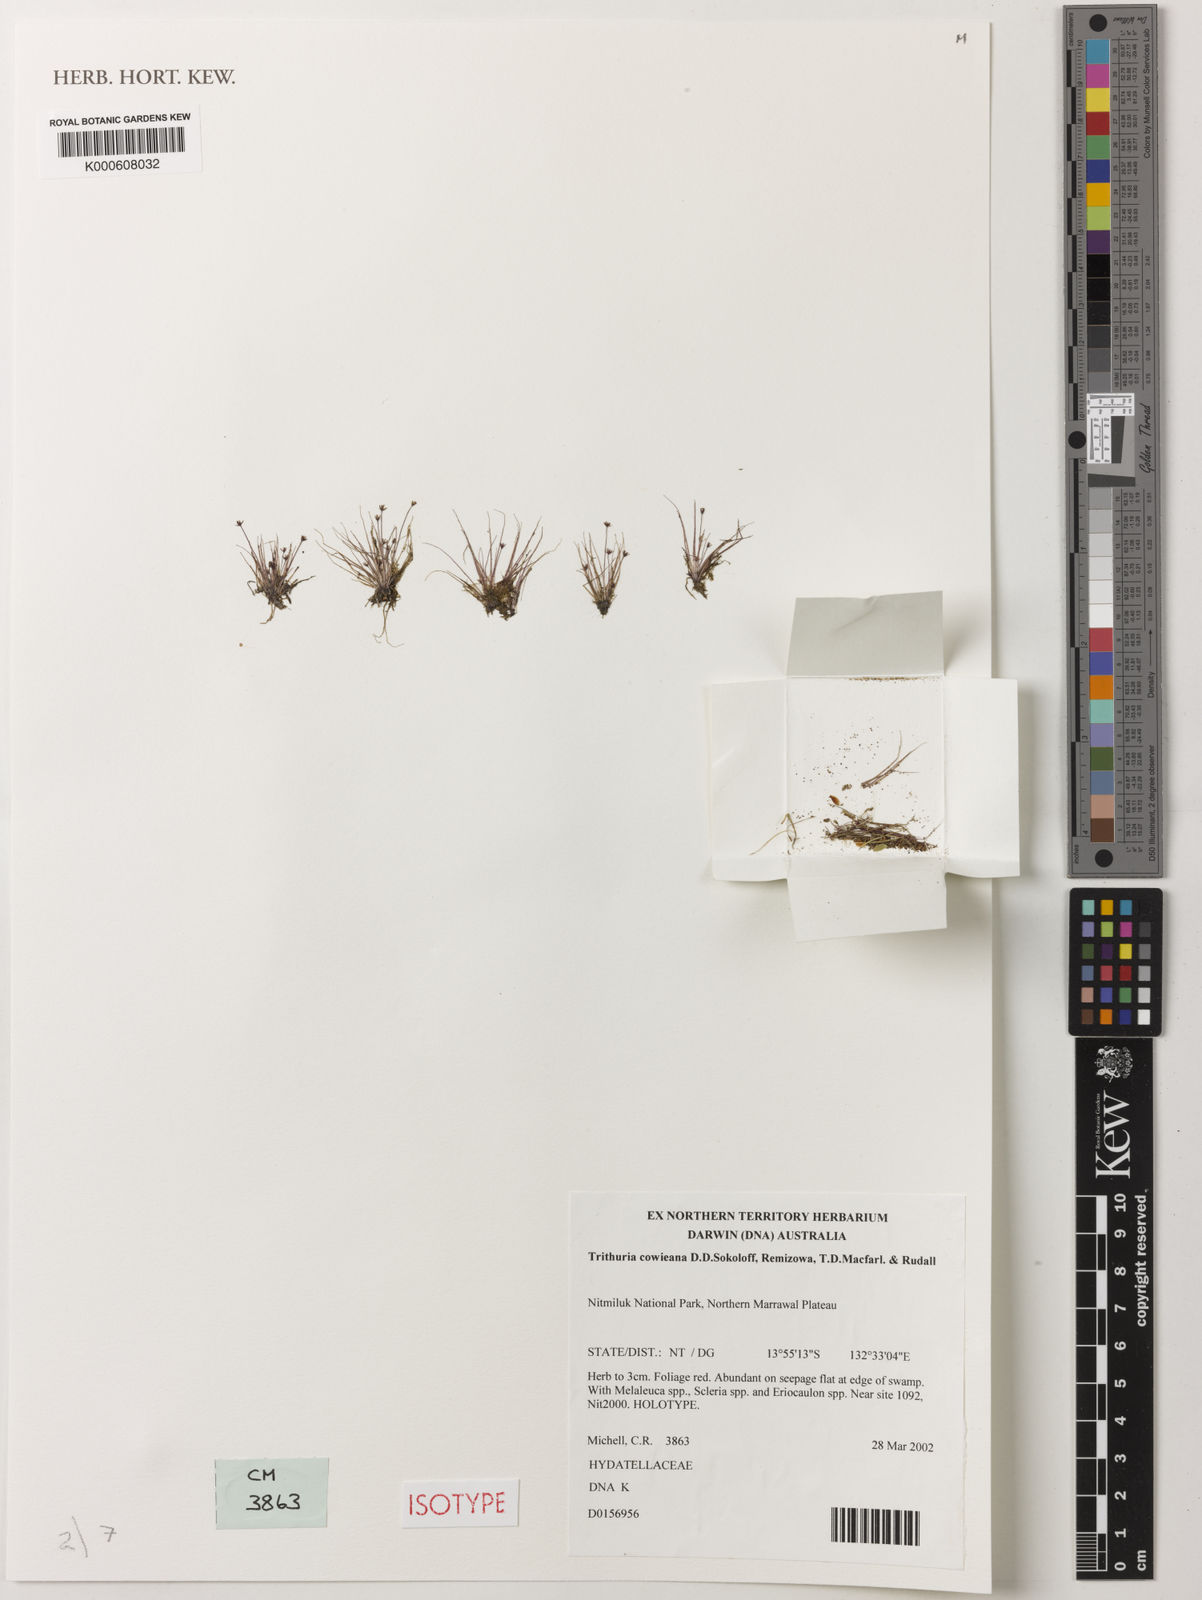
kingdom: Plantae
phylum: Tracheophyta
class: Magnoliopsida
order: Nymphaeales
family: Hydatellaceae
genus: Trithuria
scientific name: Trithuria cowieana
